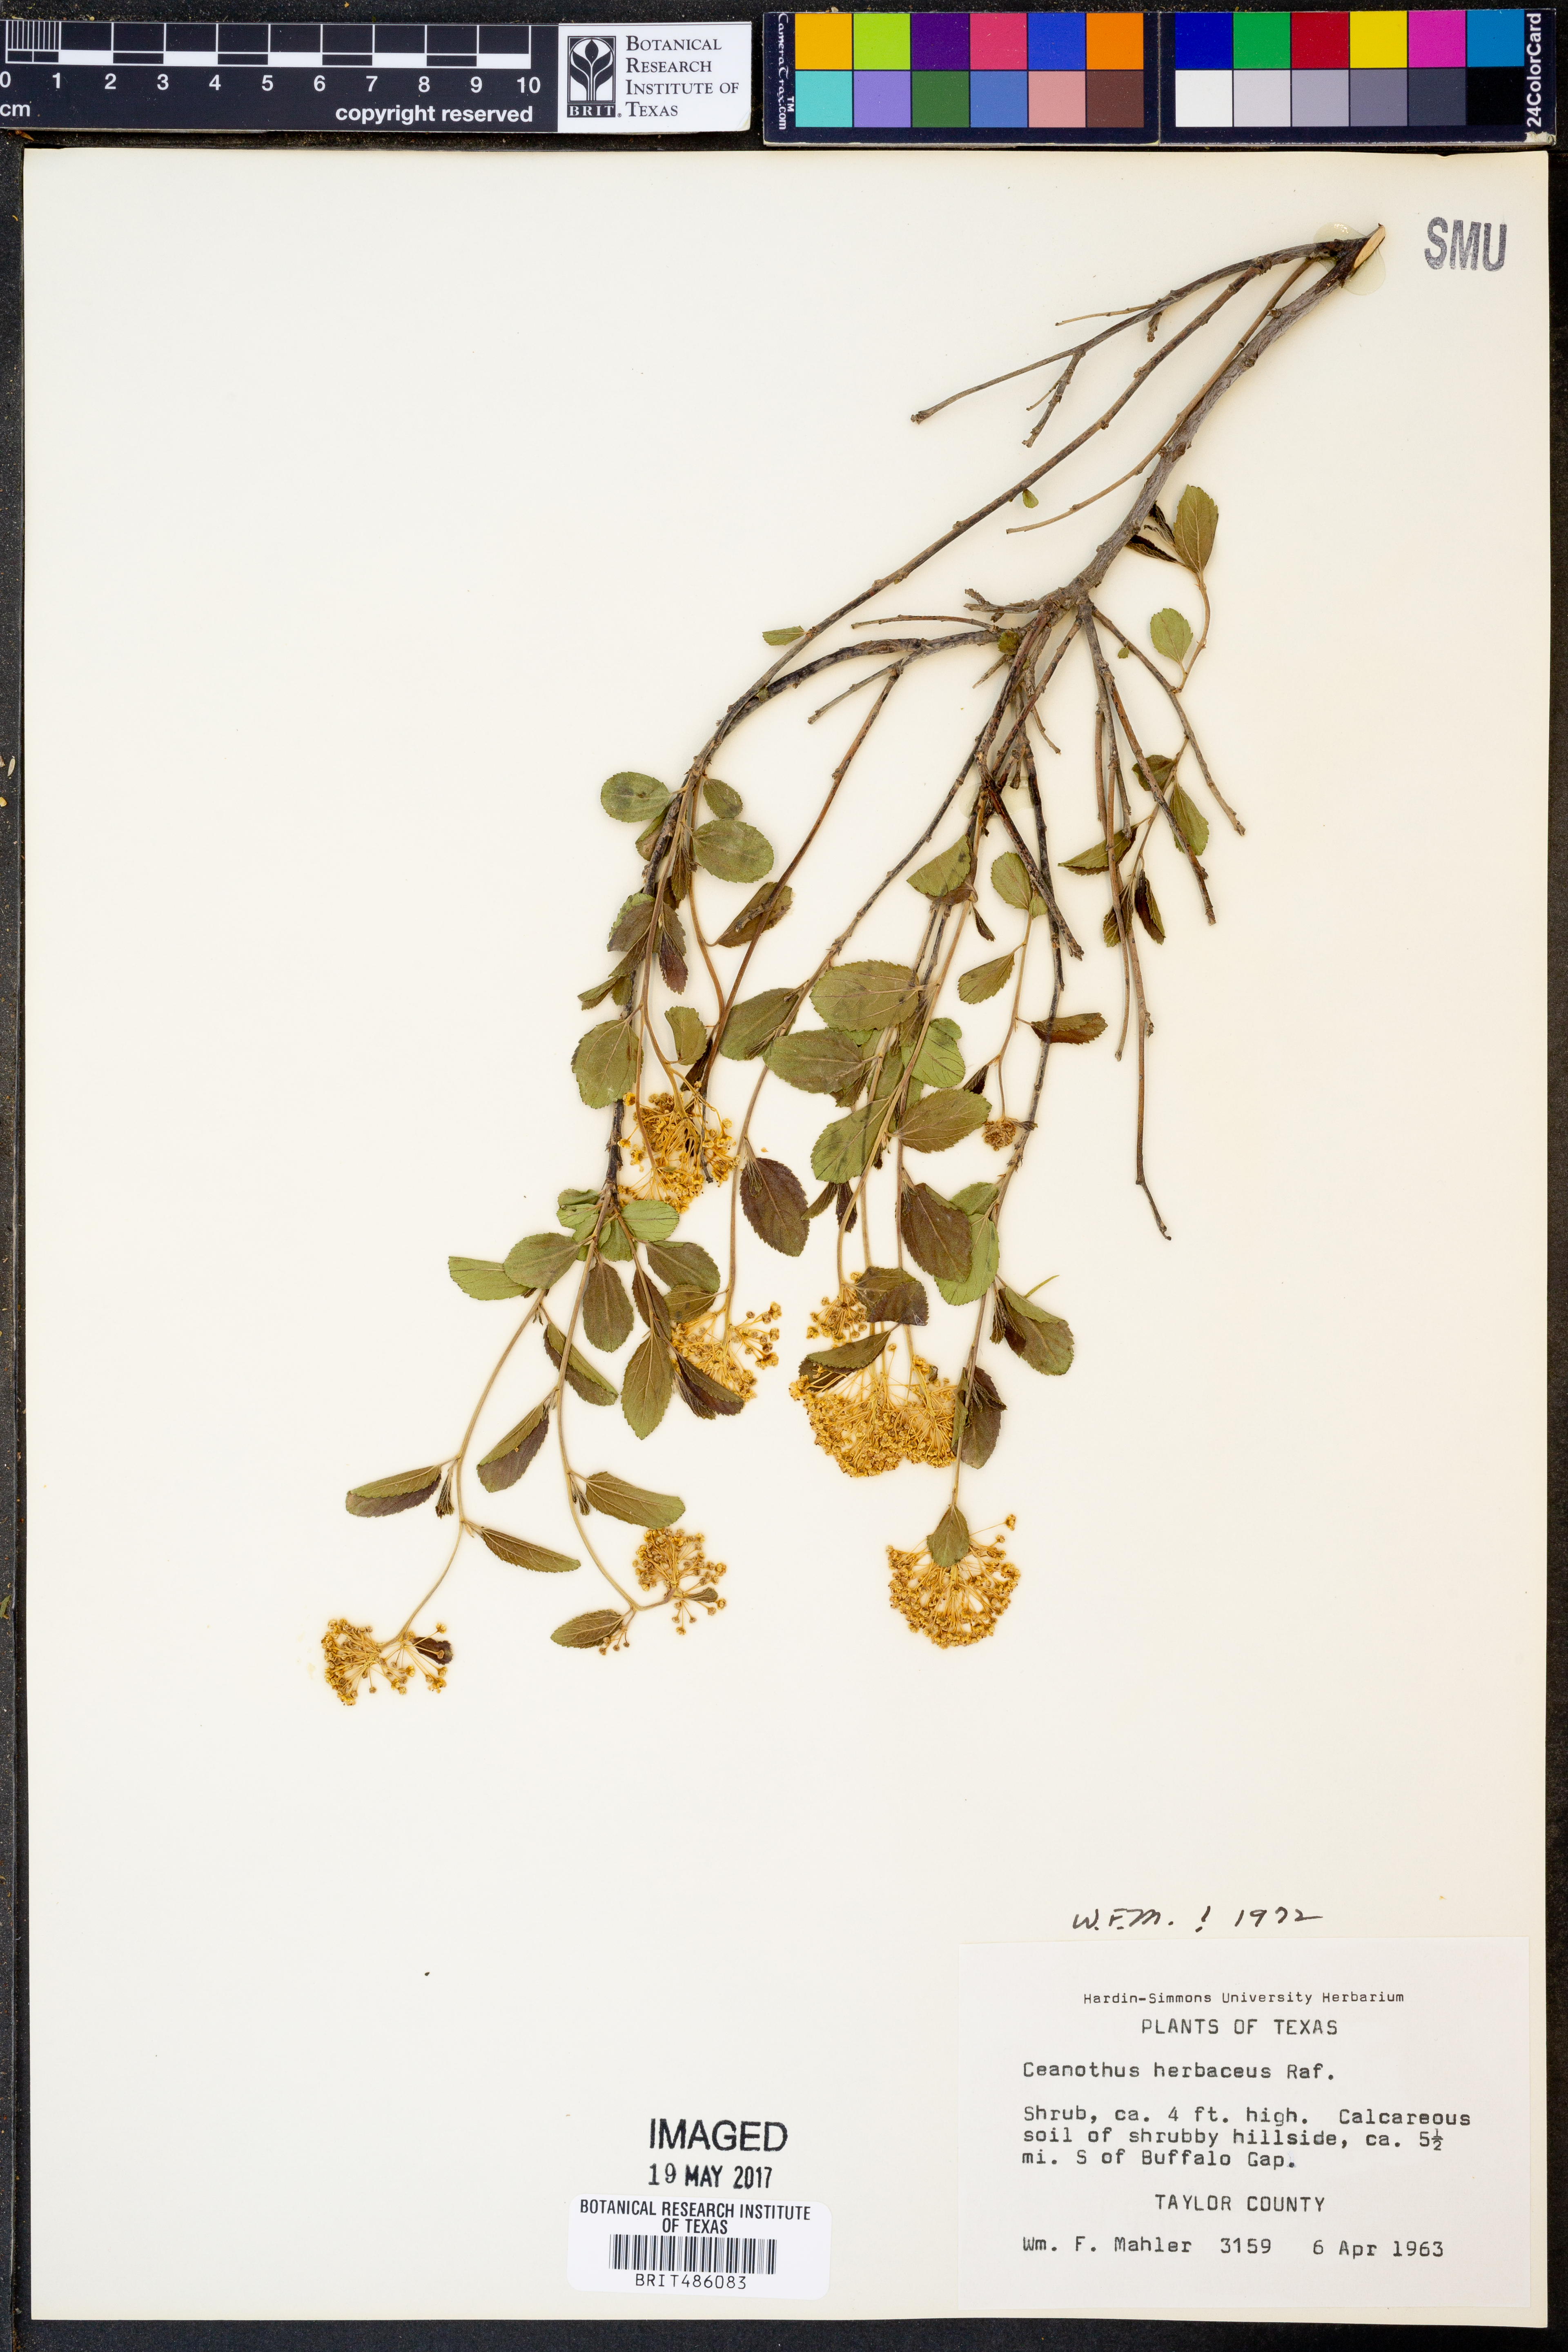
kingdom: Plantae
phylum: Tracheophyta
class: Magnoliopsida
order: Rosales
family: Rhamnaceae
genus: Ceanothus
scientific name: Ceanothus herbaceus
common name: Inland ceanothus
